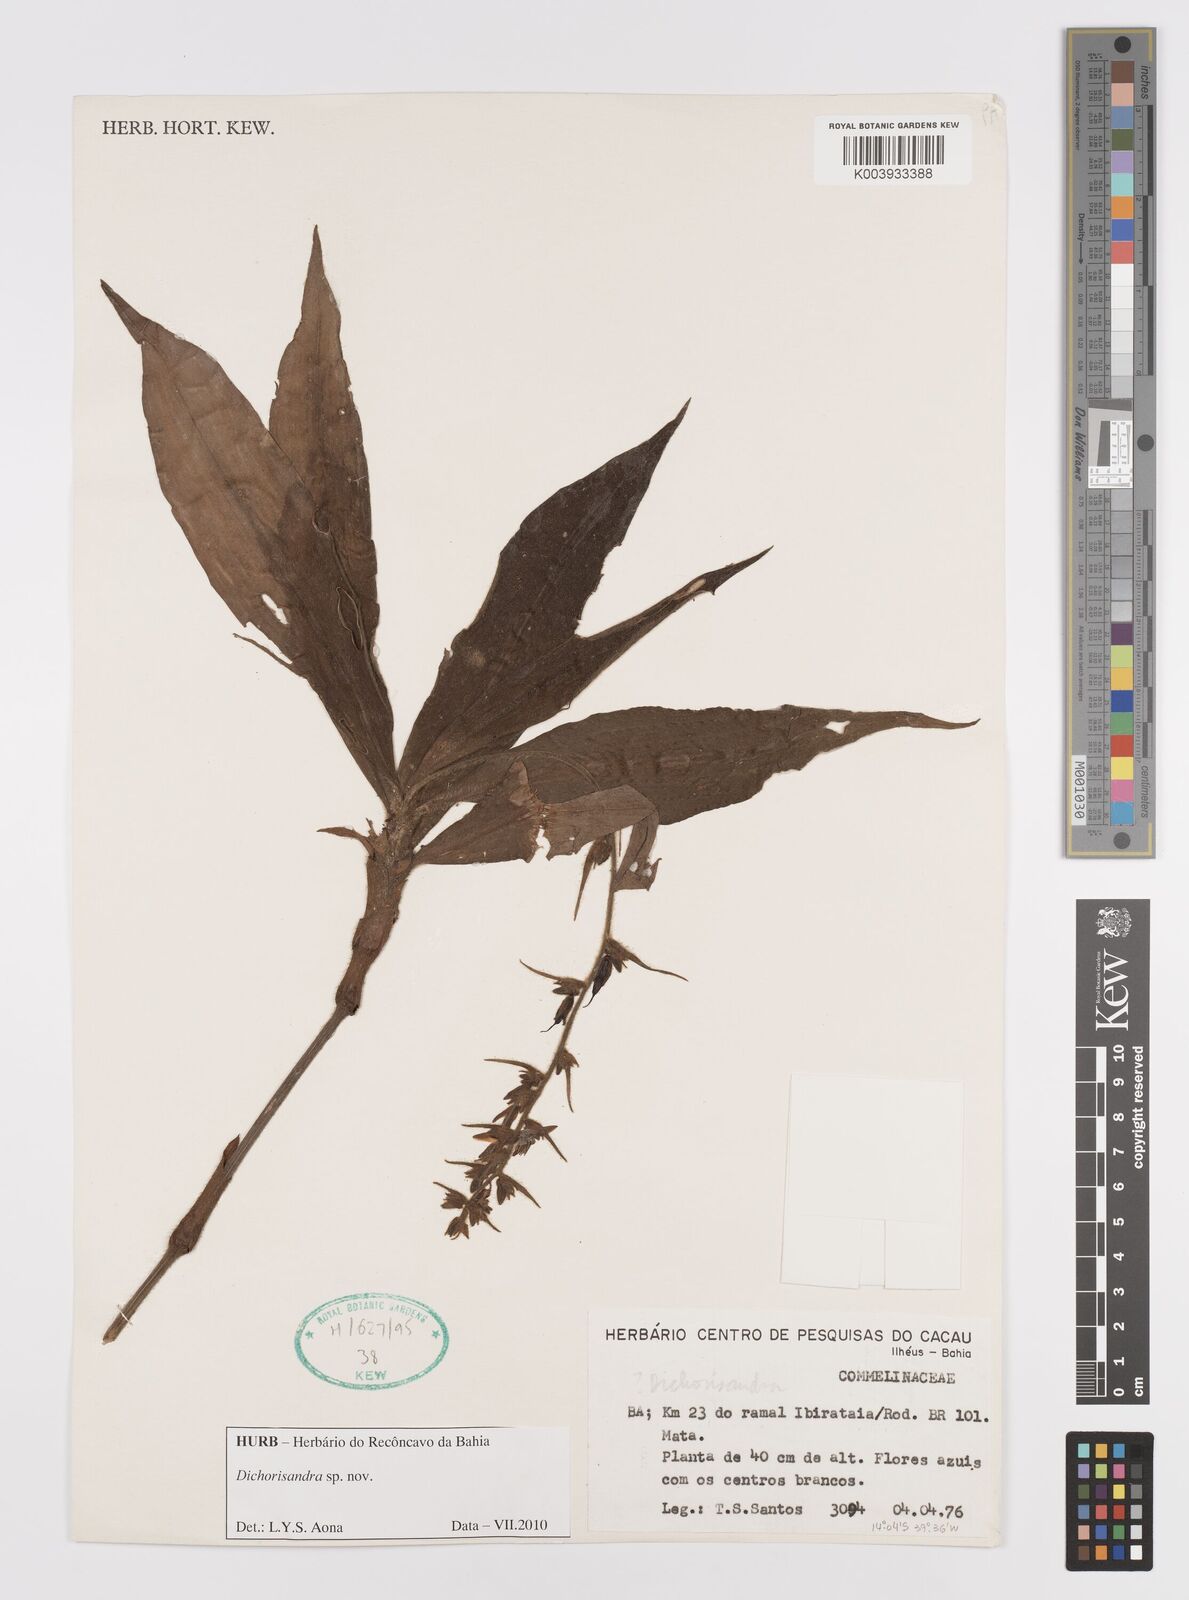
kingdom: Plantae
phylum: Tracheophyta
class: Liliopsida
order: Commelinales
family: Commelinaceae
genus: Dichorisandra
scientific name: Dichorisandra
